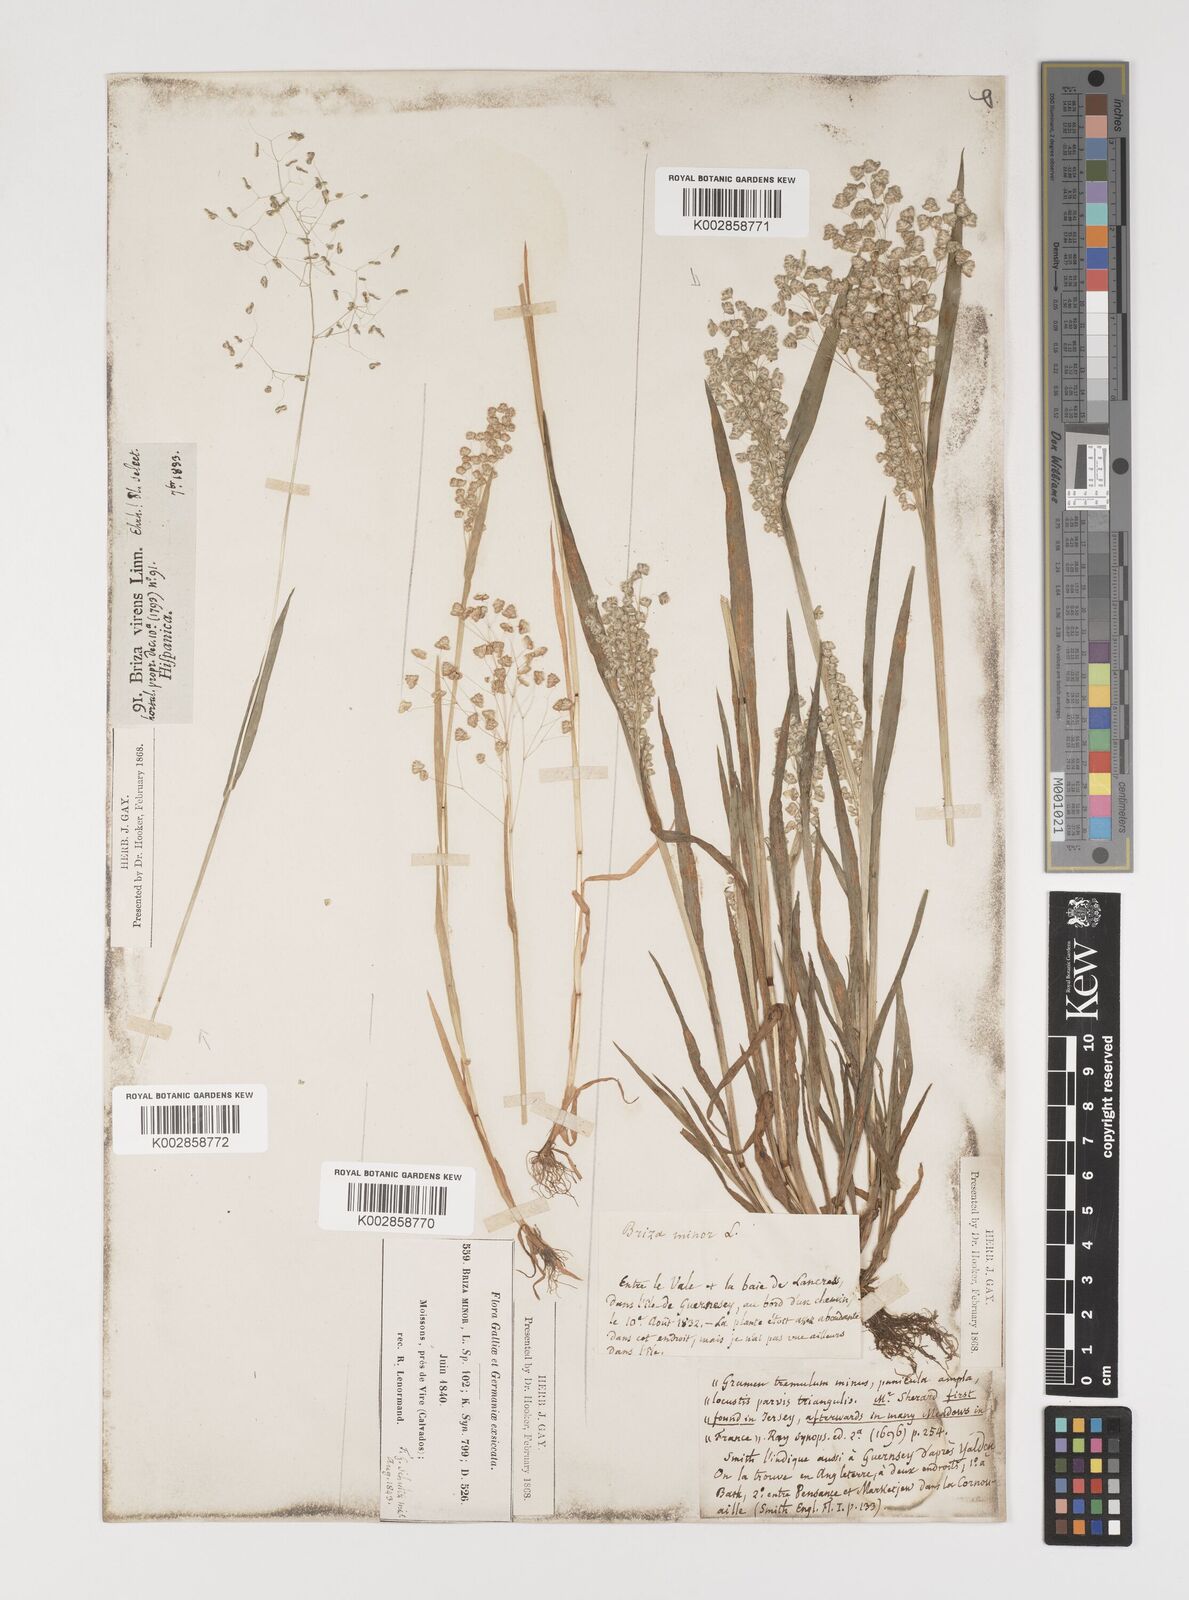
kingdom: Plantae
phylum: Tracheophyta
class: Liliopsida
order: Poales
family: Poaceae
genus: Briza
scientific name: Briza minor
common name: Lesser quaking-grass
